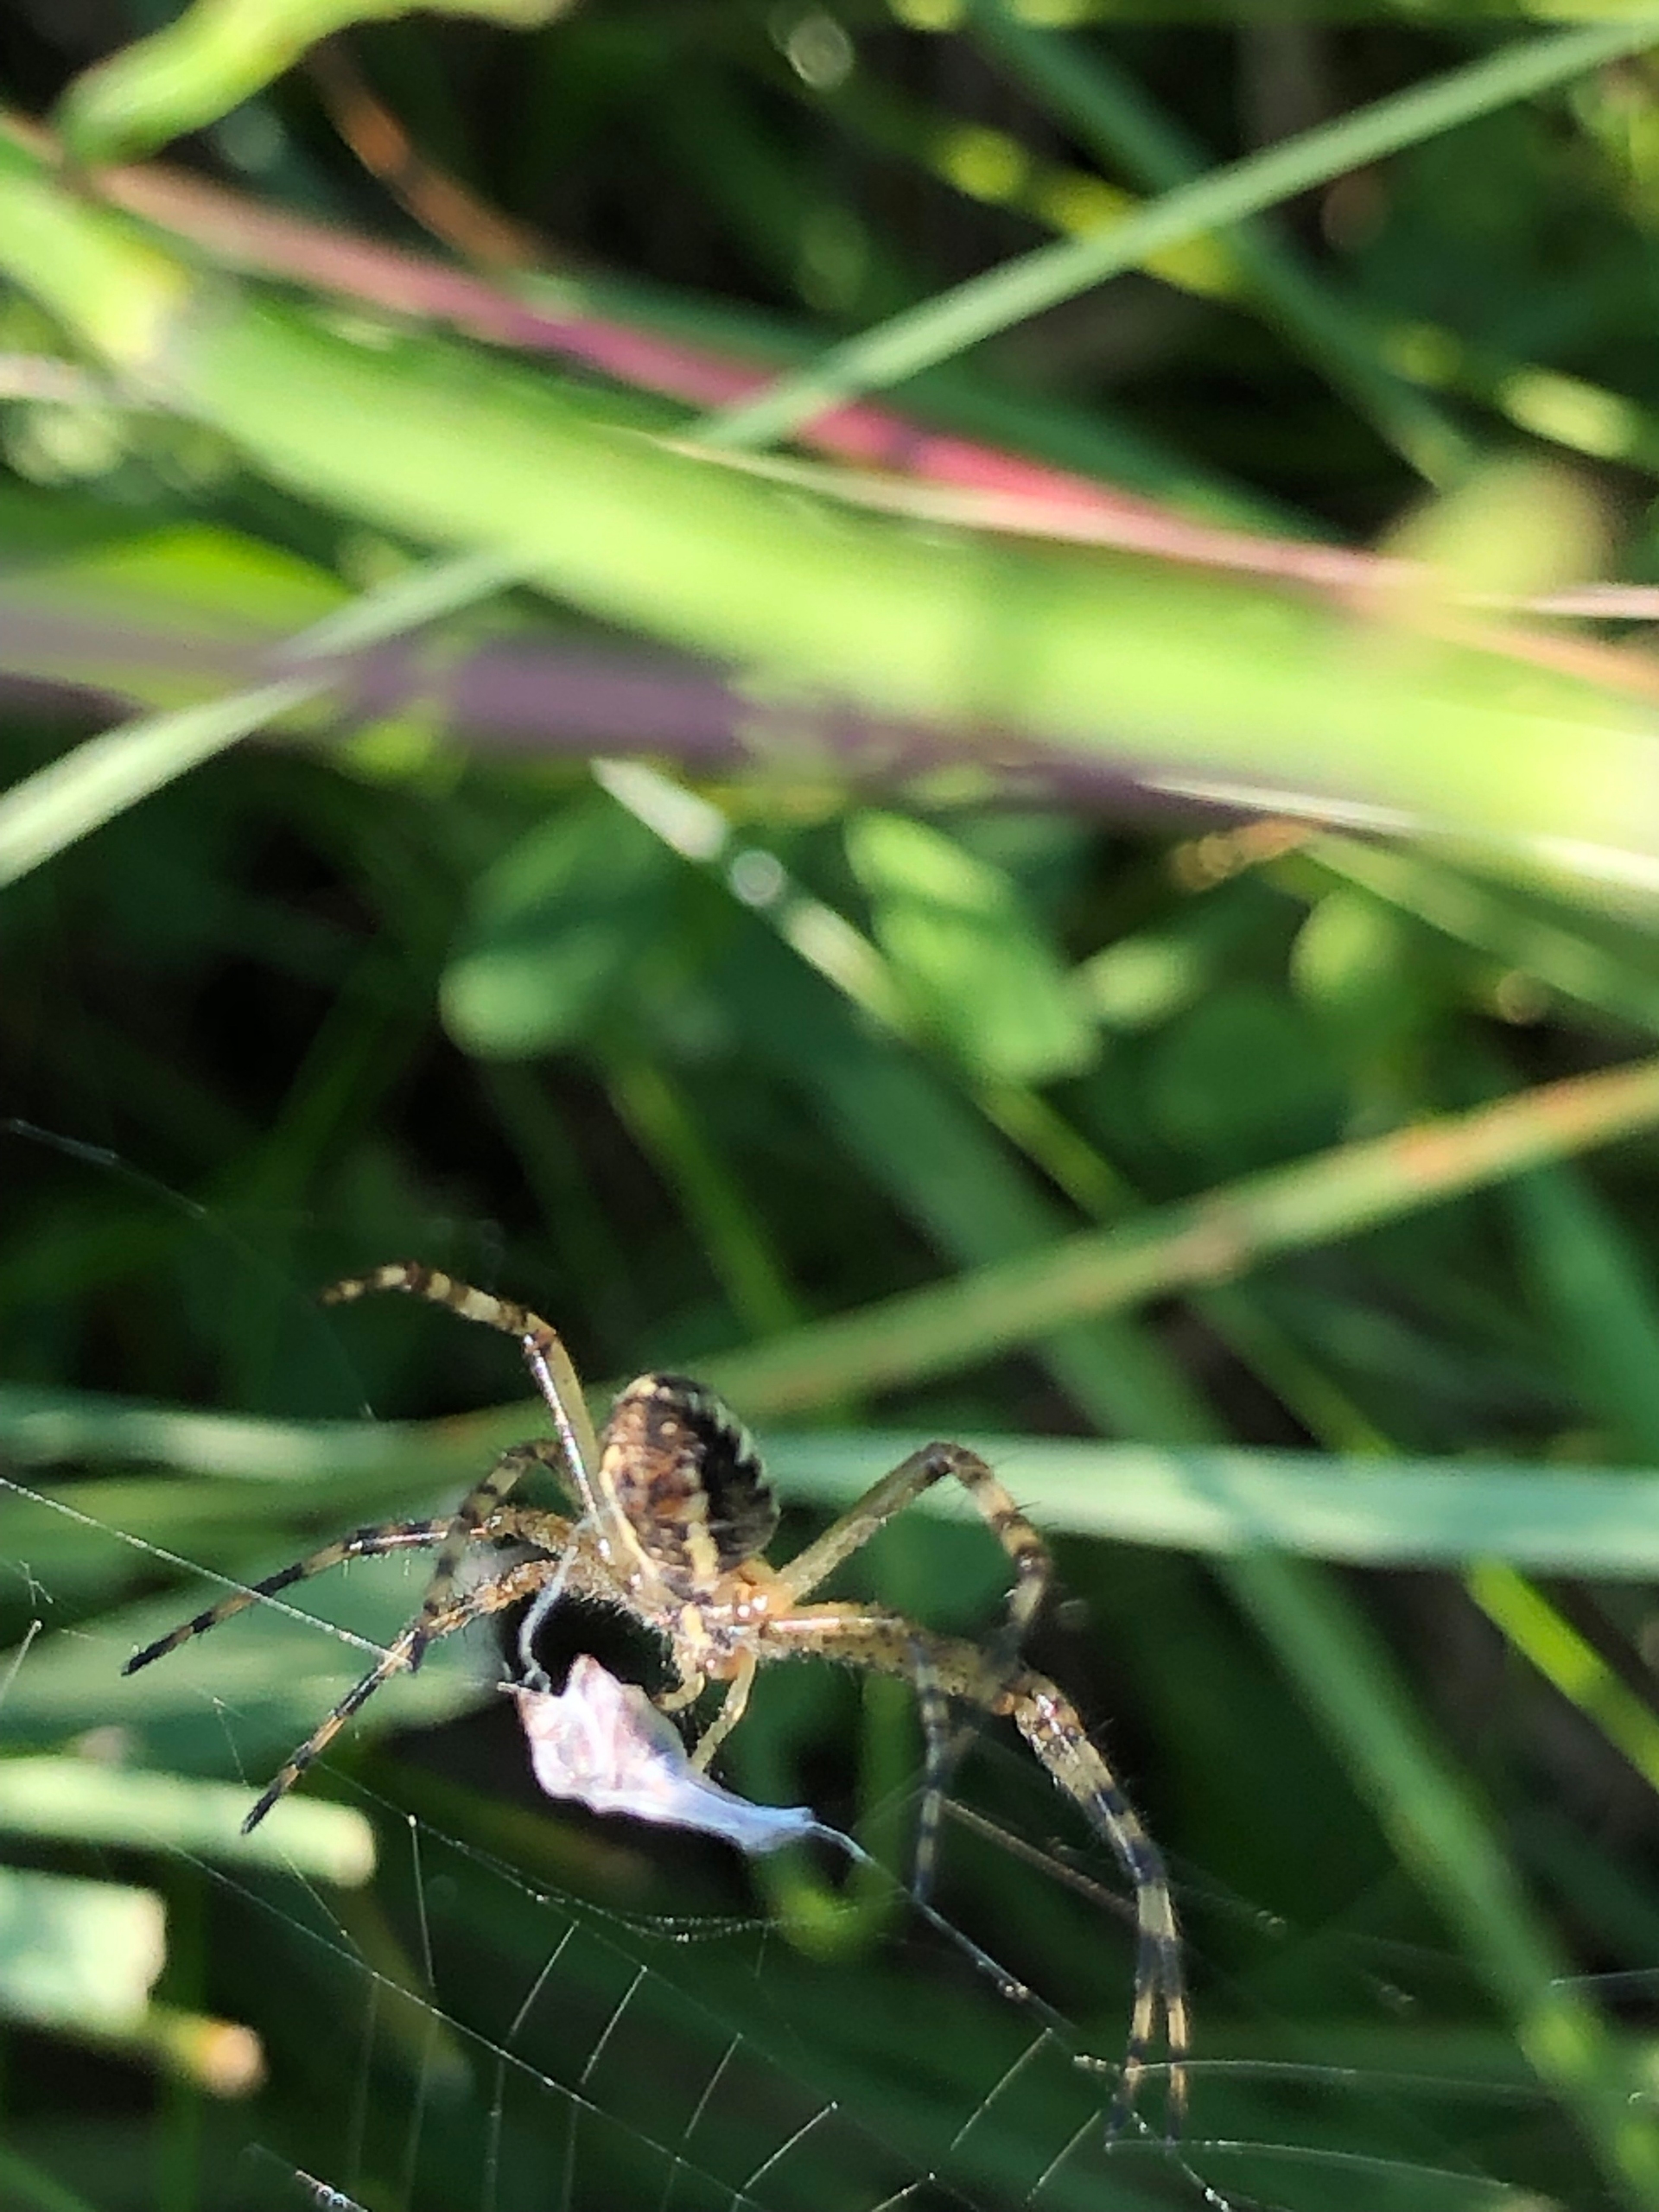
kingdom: Animalia
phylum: Arthropoda
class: Arachnida
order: Araneae
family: Araneidae
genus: Argiope
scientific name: Argiope bruennichi
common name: Hvepseedderkop
